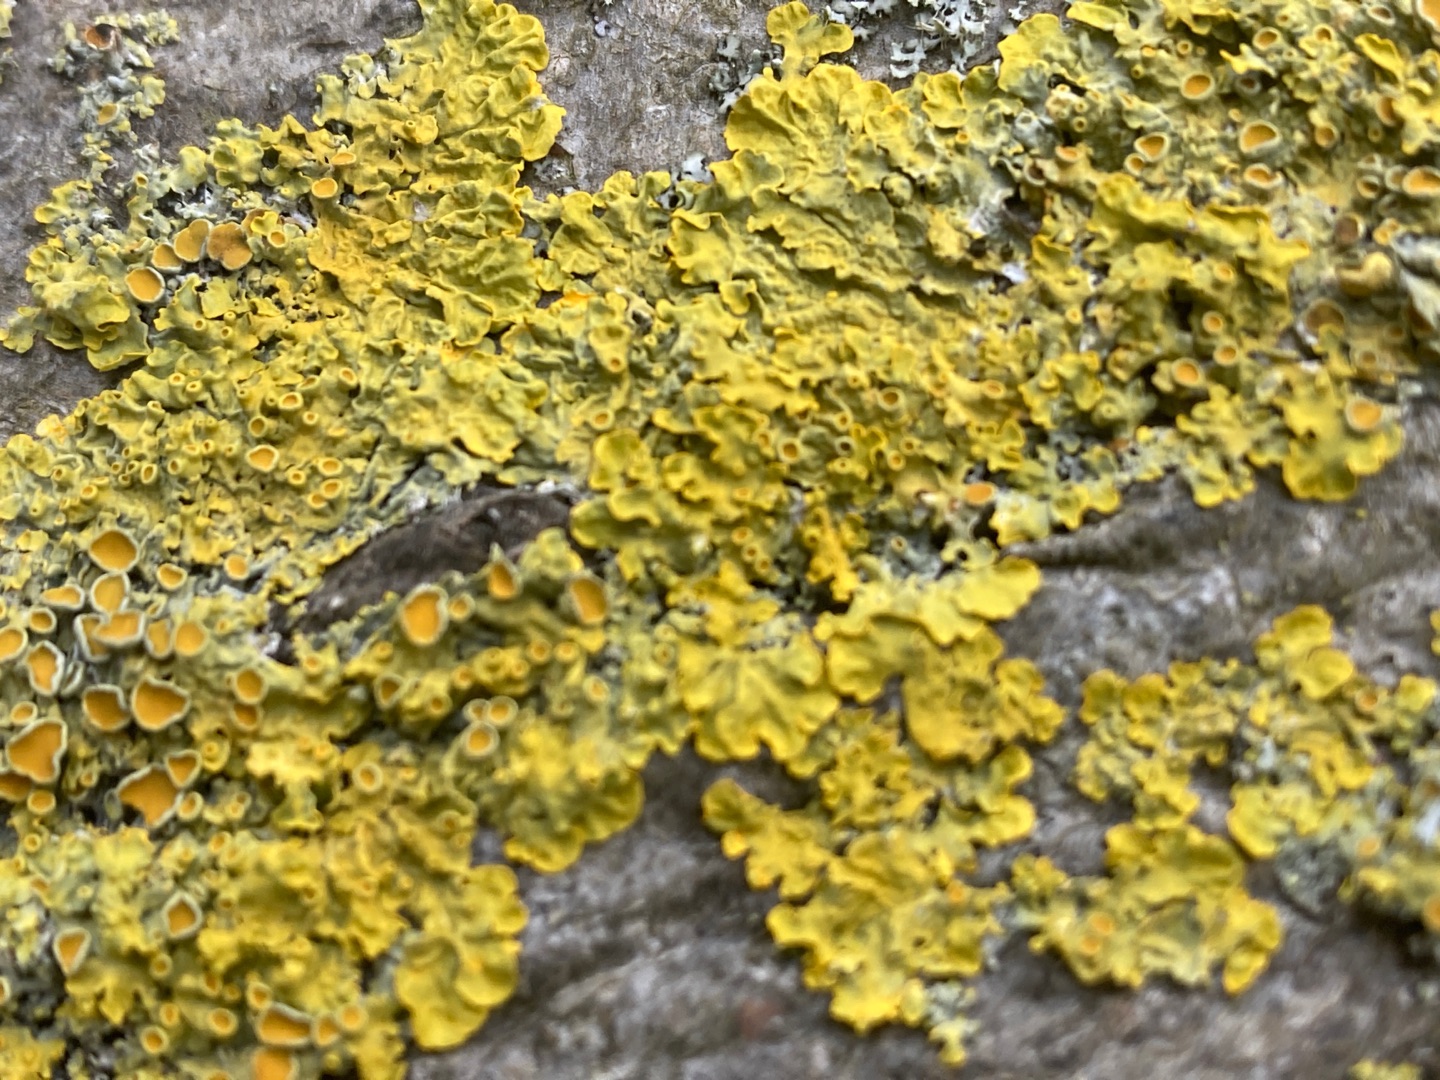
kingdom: Fungi
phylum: Ascomycota
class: Lecanoromycetes
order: Teloschistales
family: Teloschistaceae
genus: Xanthoria
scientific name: Xanthoria parietina
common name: Almindelig væggelav
